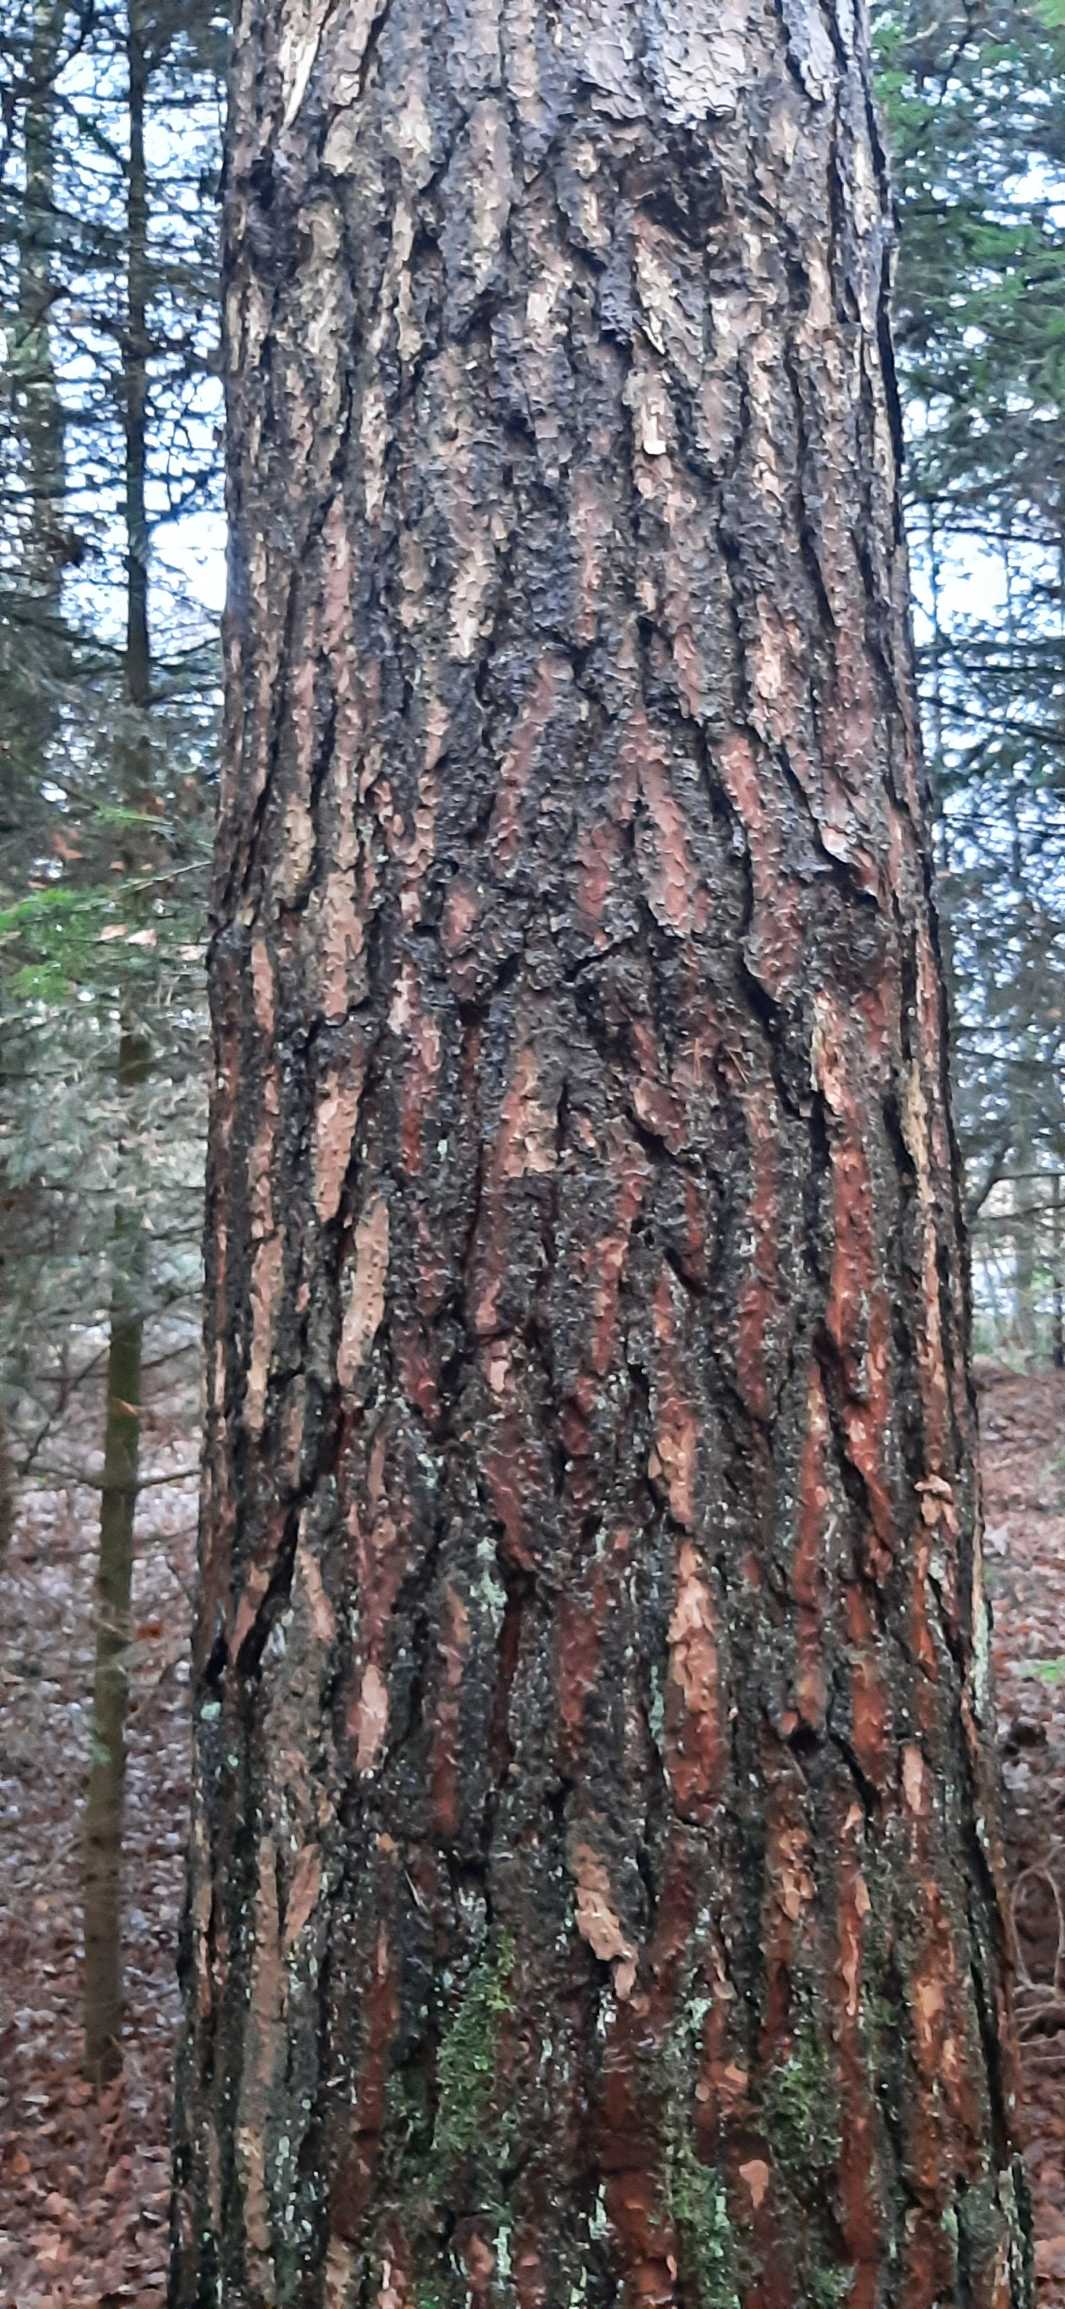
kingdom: Plantae
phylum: Tracheophyta
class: Pinopsida
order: Pinales
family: Pinaceae
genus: Pinus
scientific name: Pinus sylvestris
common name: Skov-fyr
